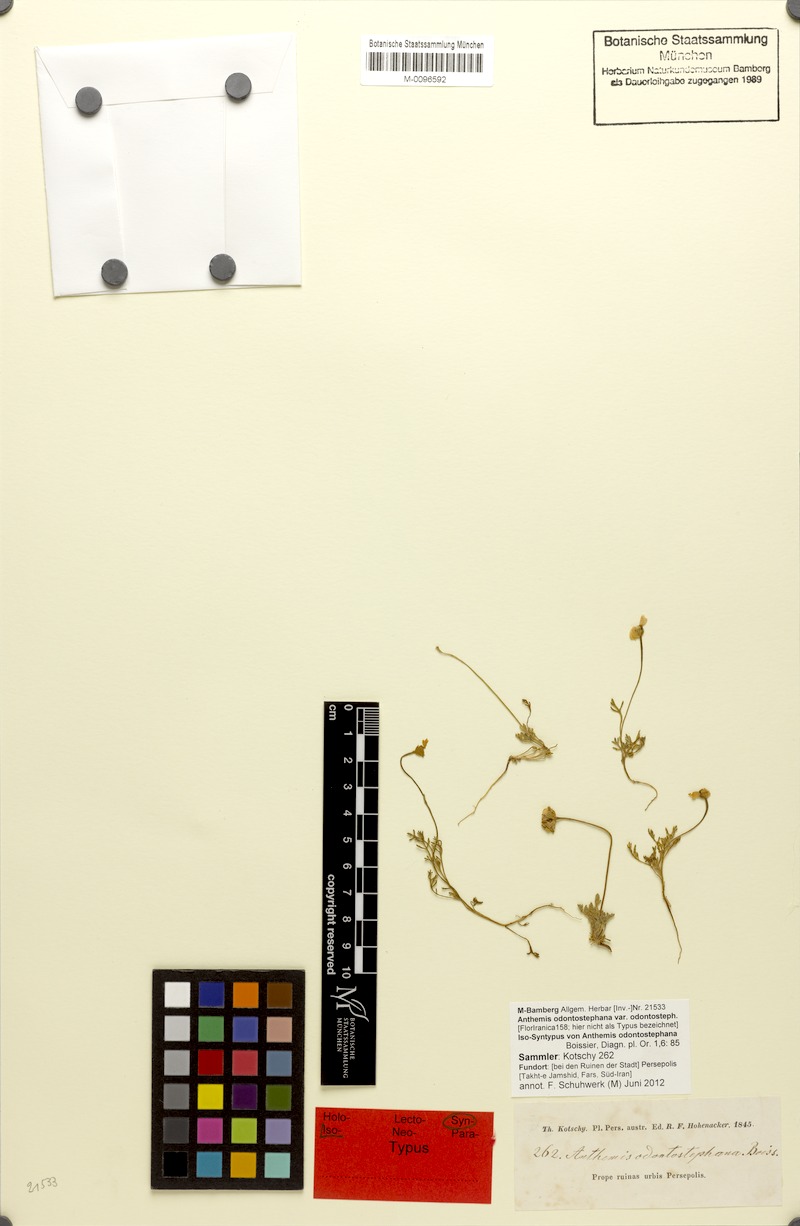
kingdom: Plantae
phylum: Tracheophyta
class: Magnoliopsida
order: Asterales
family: Asteraceae
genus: Anthemis
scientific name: Anthemis odontostephana
